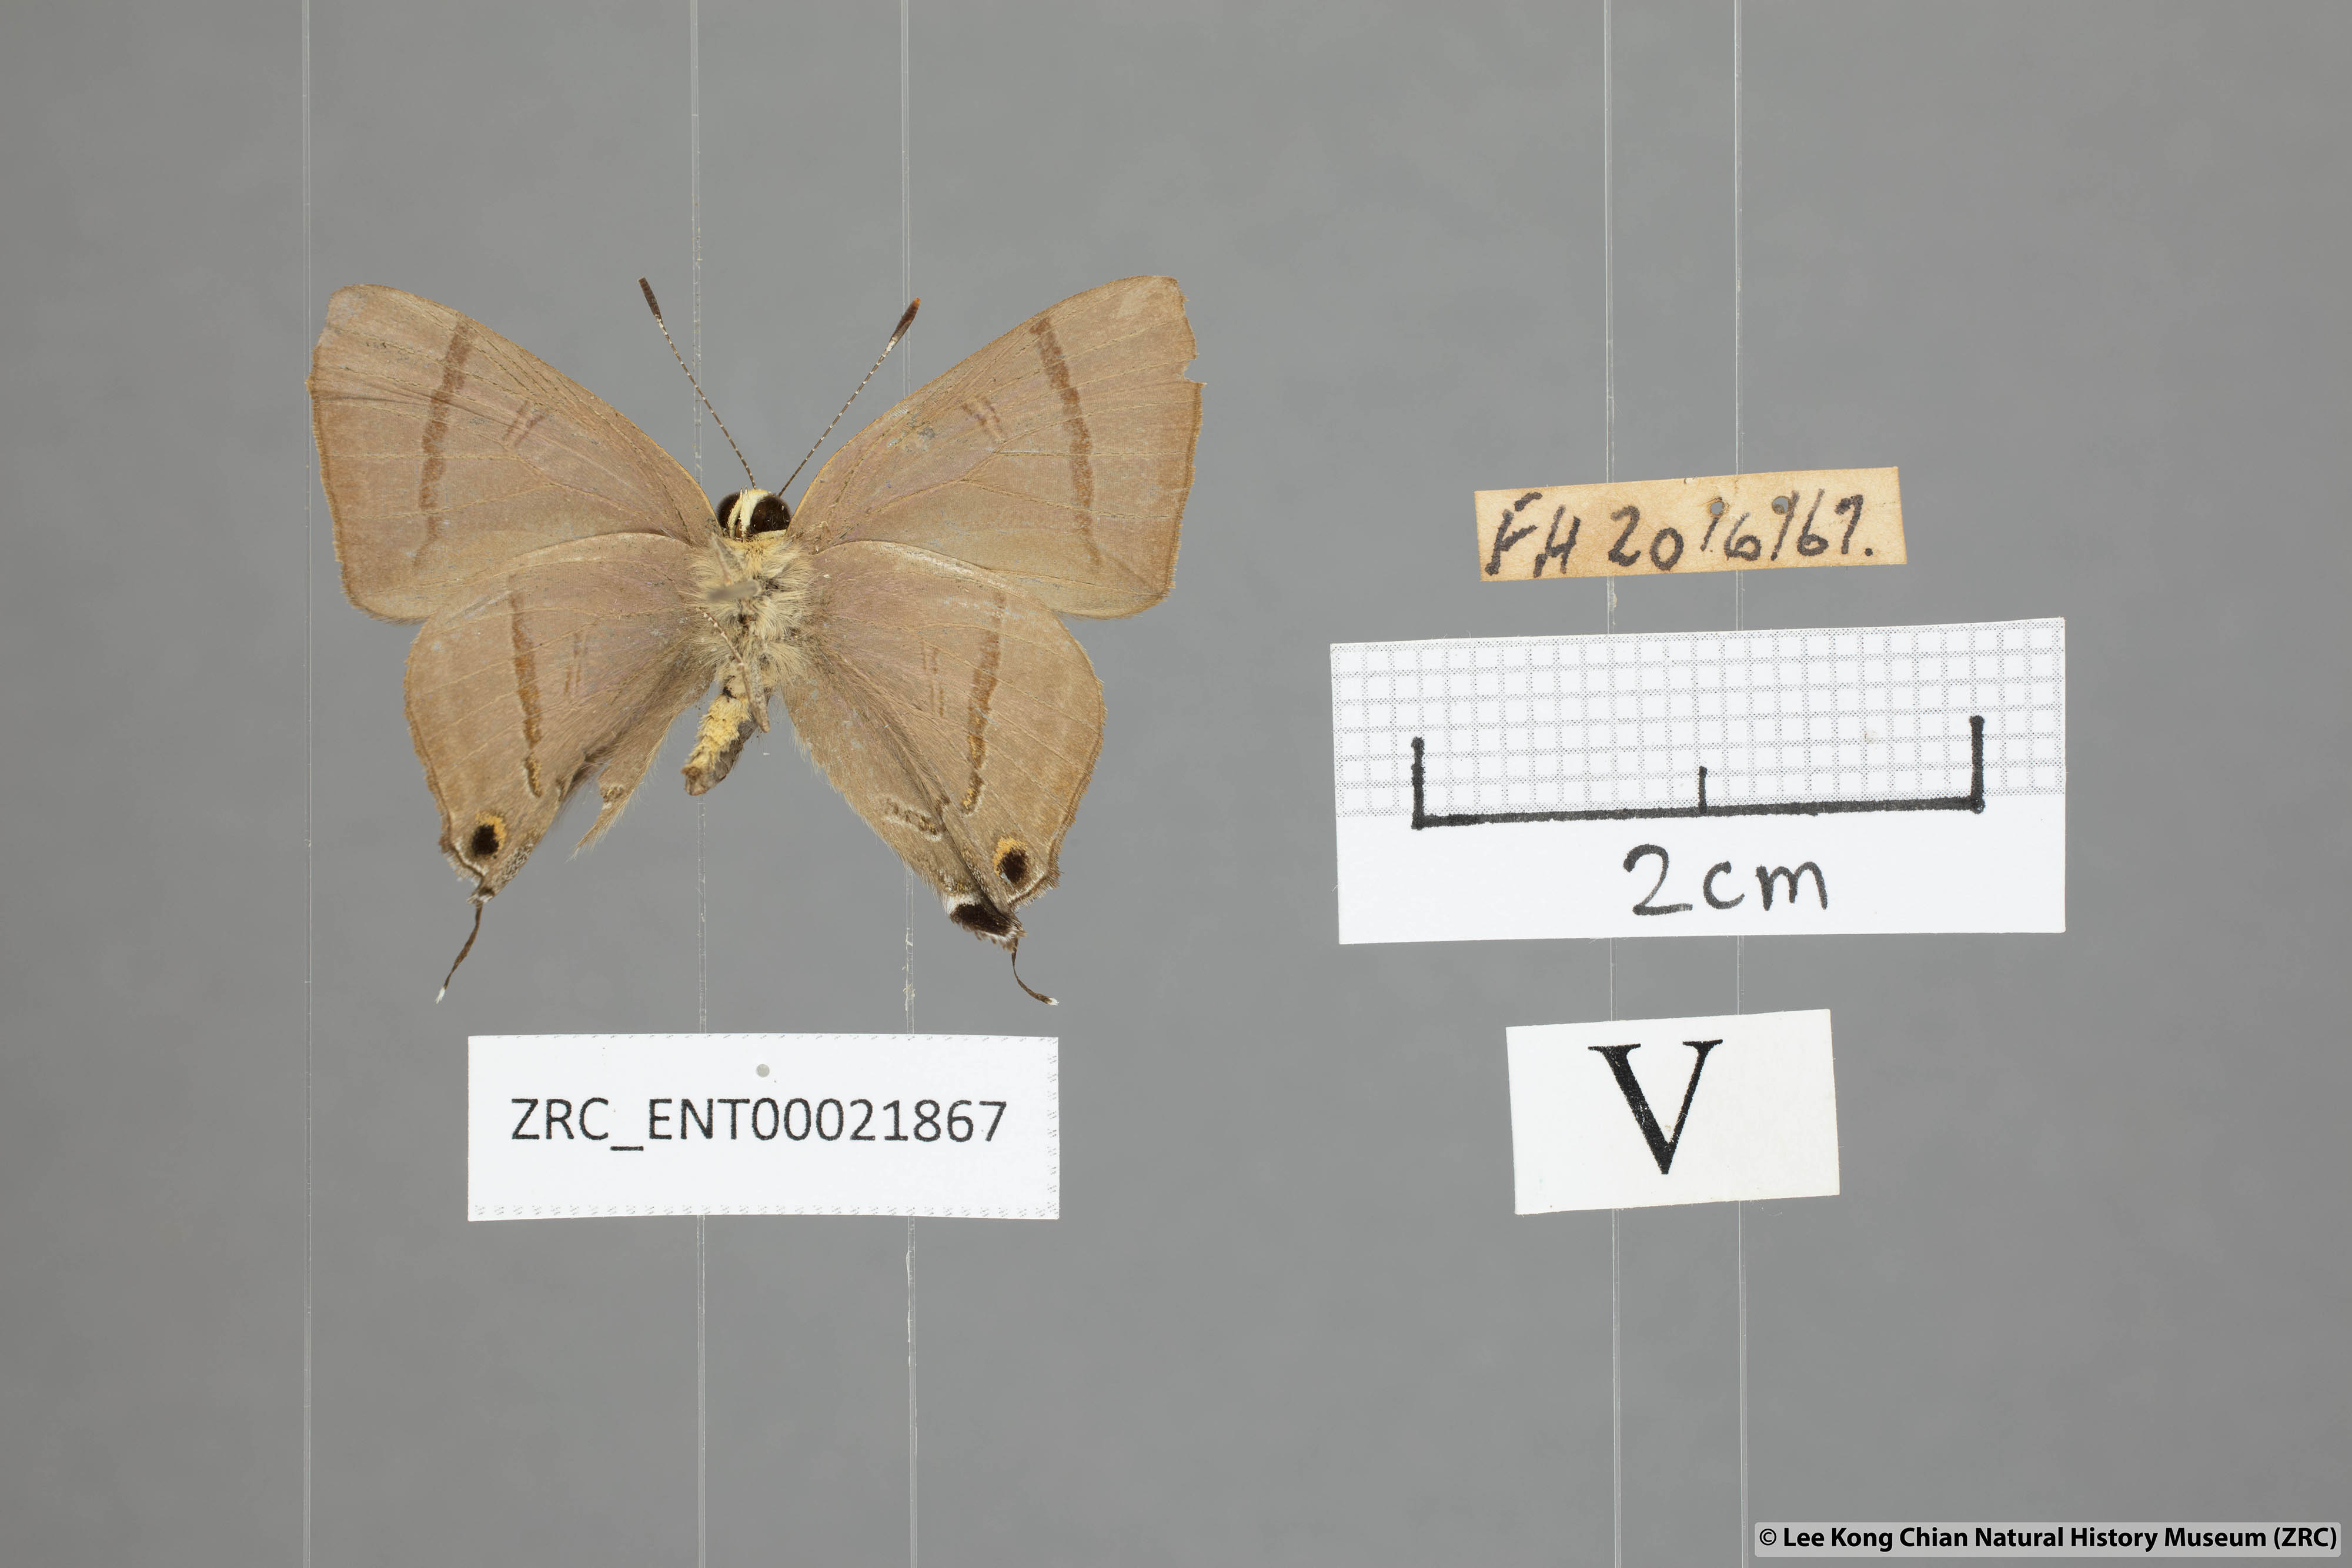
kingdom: Animalia
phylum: Arthropoda
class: Insecta
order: Lepidoptera
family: Lycaenidae
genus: Rapala
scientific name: Rapala nissa
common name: Common flash
